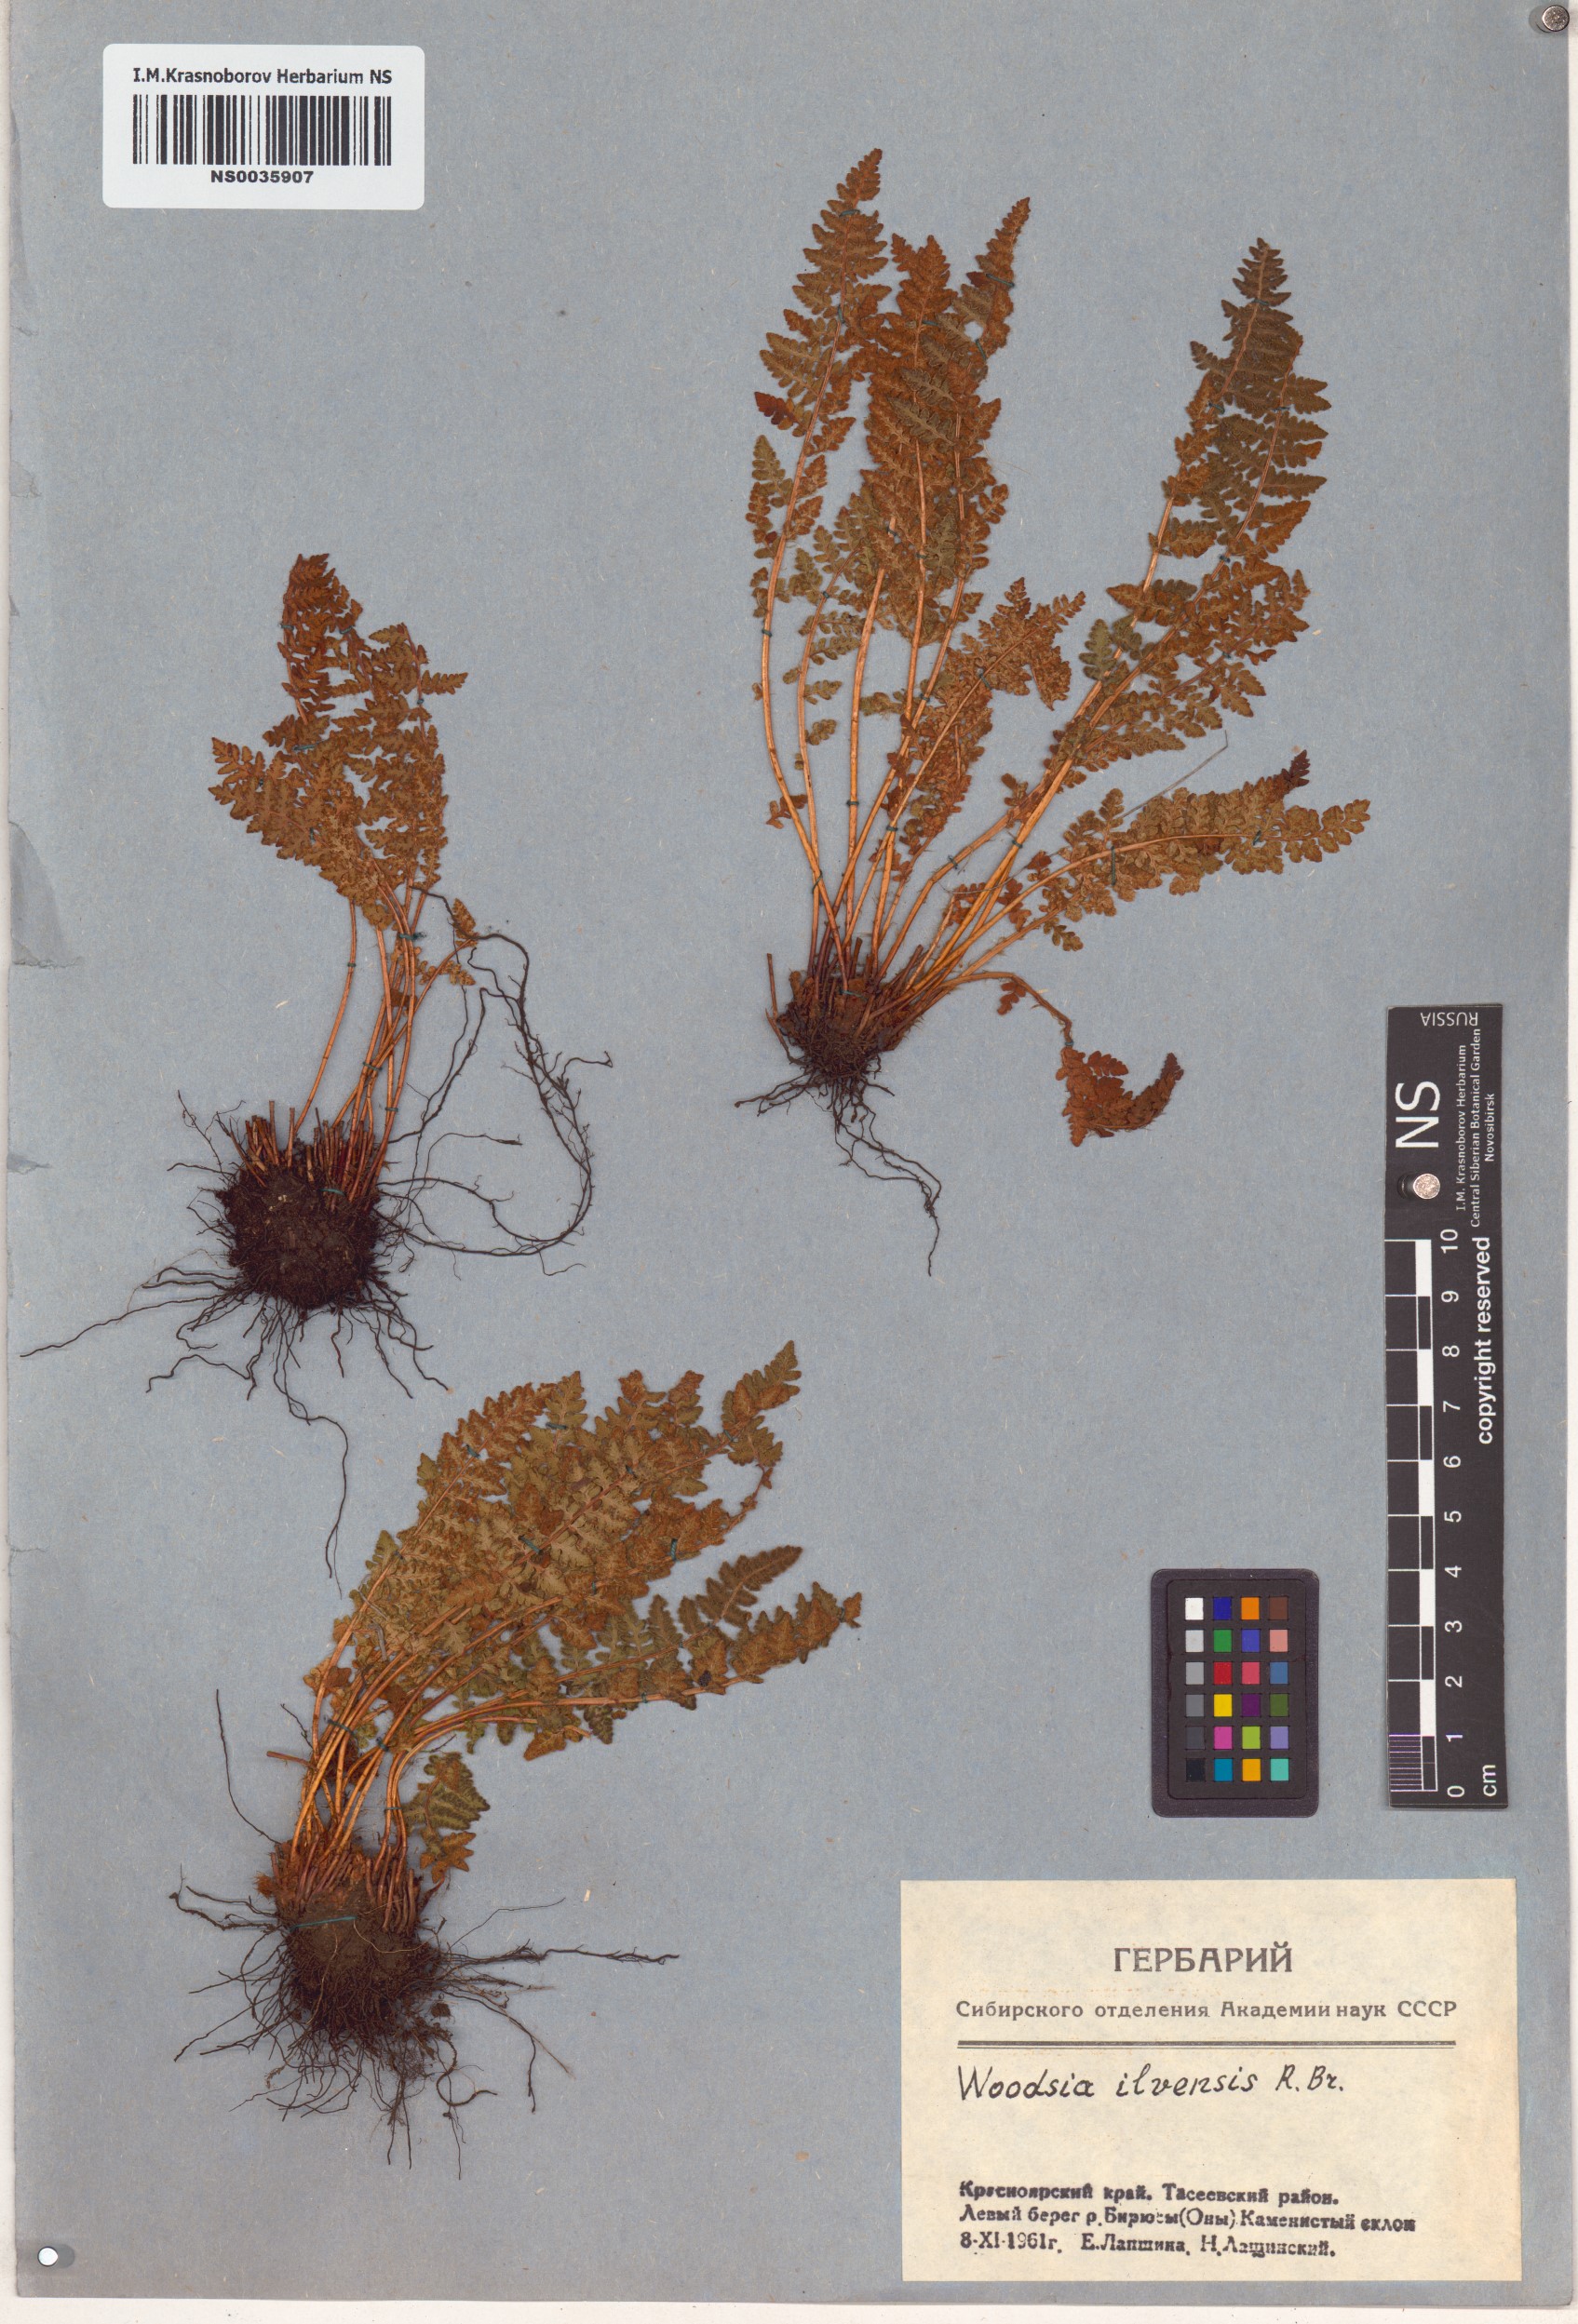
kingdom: Plantae
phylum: Tracheophyta
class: Polypodiopsida
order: Polypodiales
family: Woodsiaceae
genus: Woodsia
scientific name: Woodsia ilvensis
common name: Fragrant woodsia
